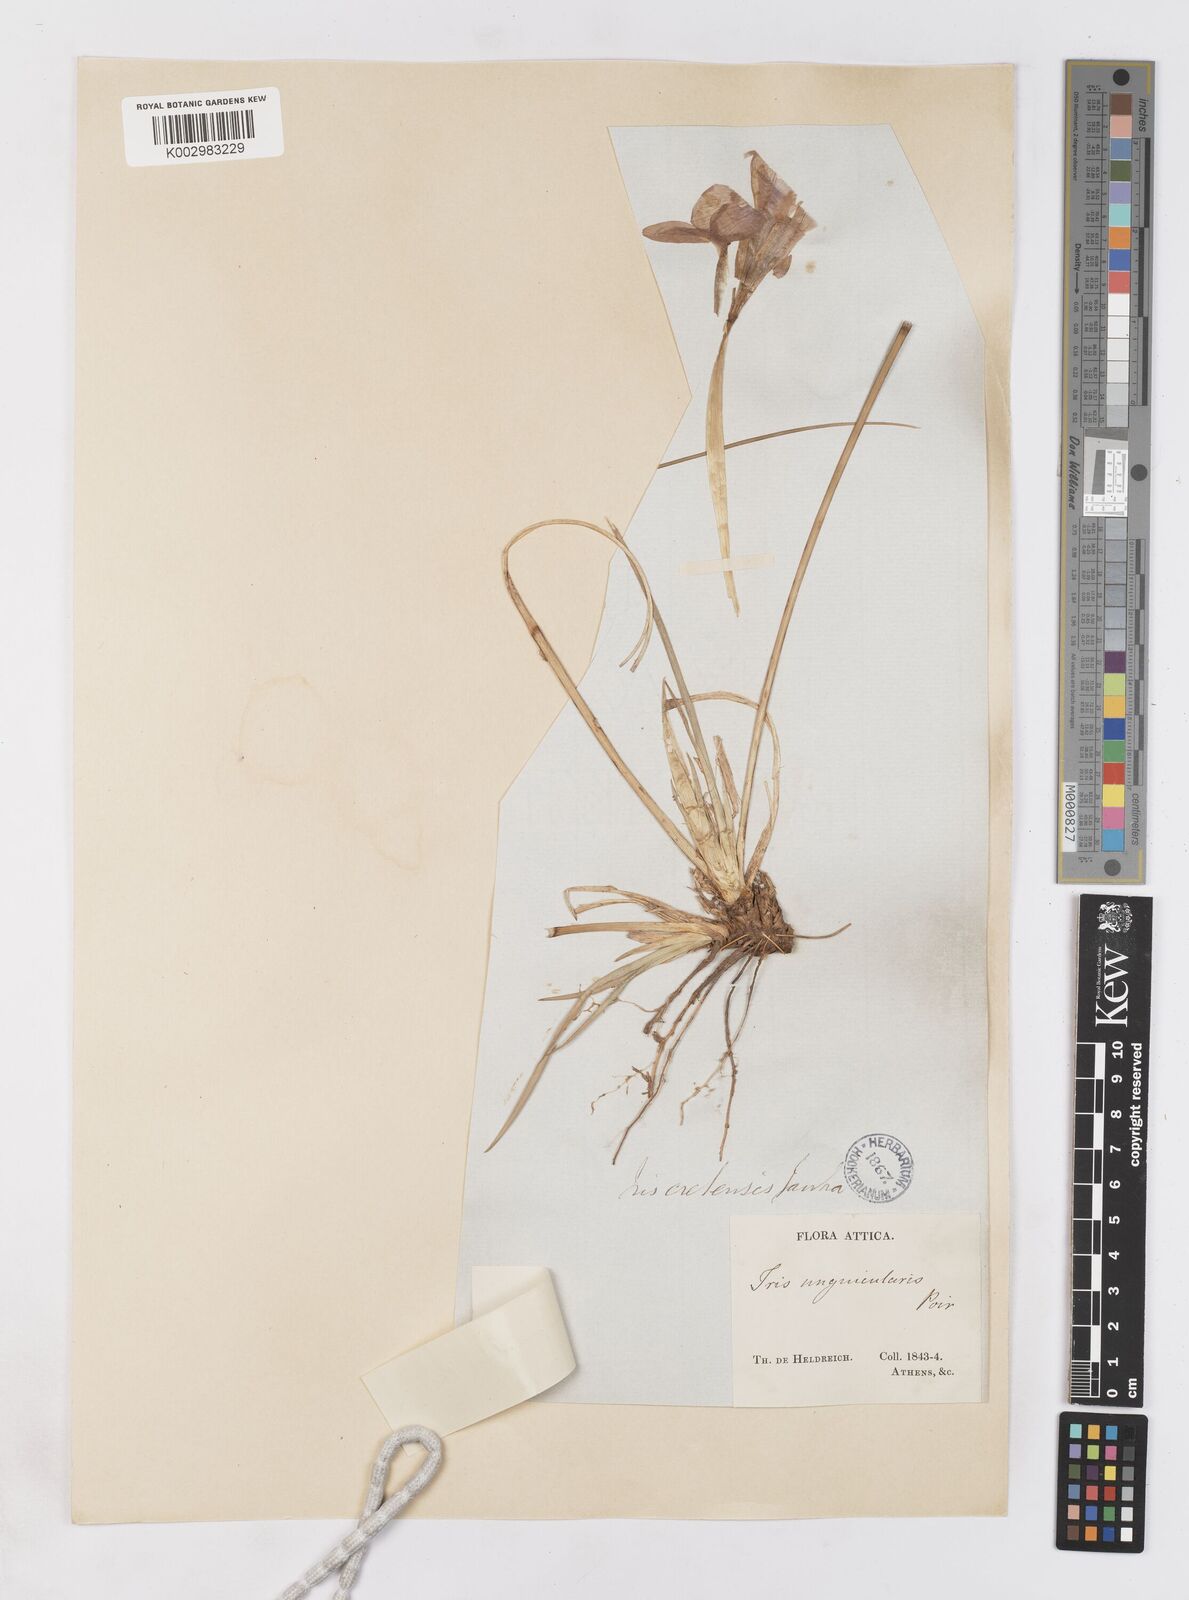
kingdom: Plantae
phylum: Tracheophyta
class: Liliopsida
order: Asparagales
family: Iridaceae
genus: Iris
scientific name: Iris unguicularis
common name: Algerian iris
